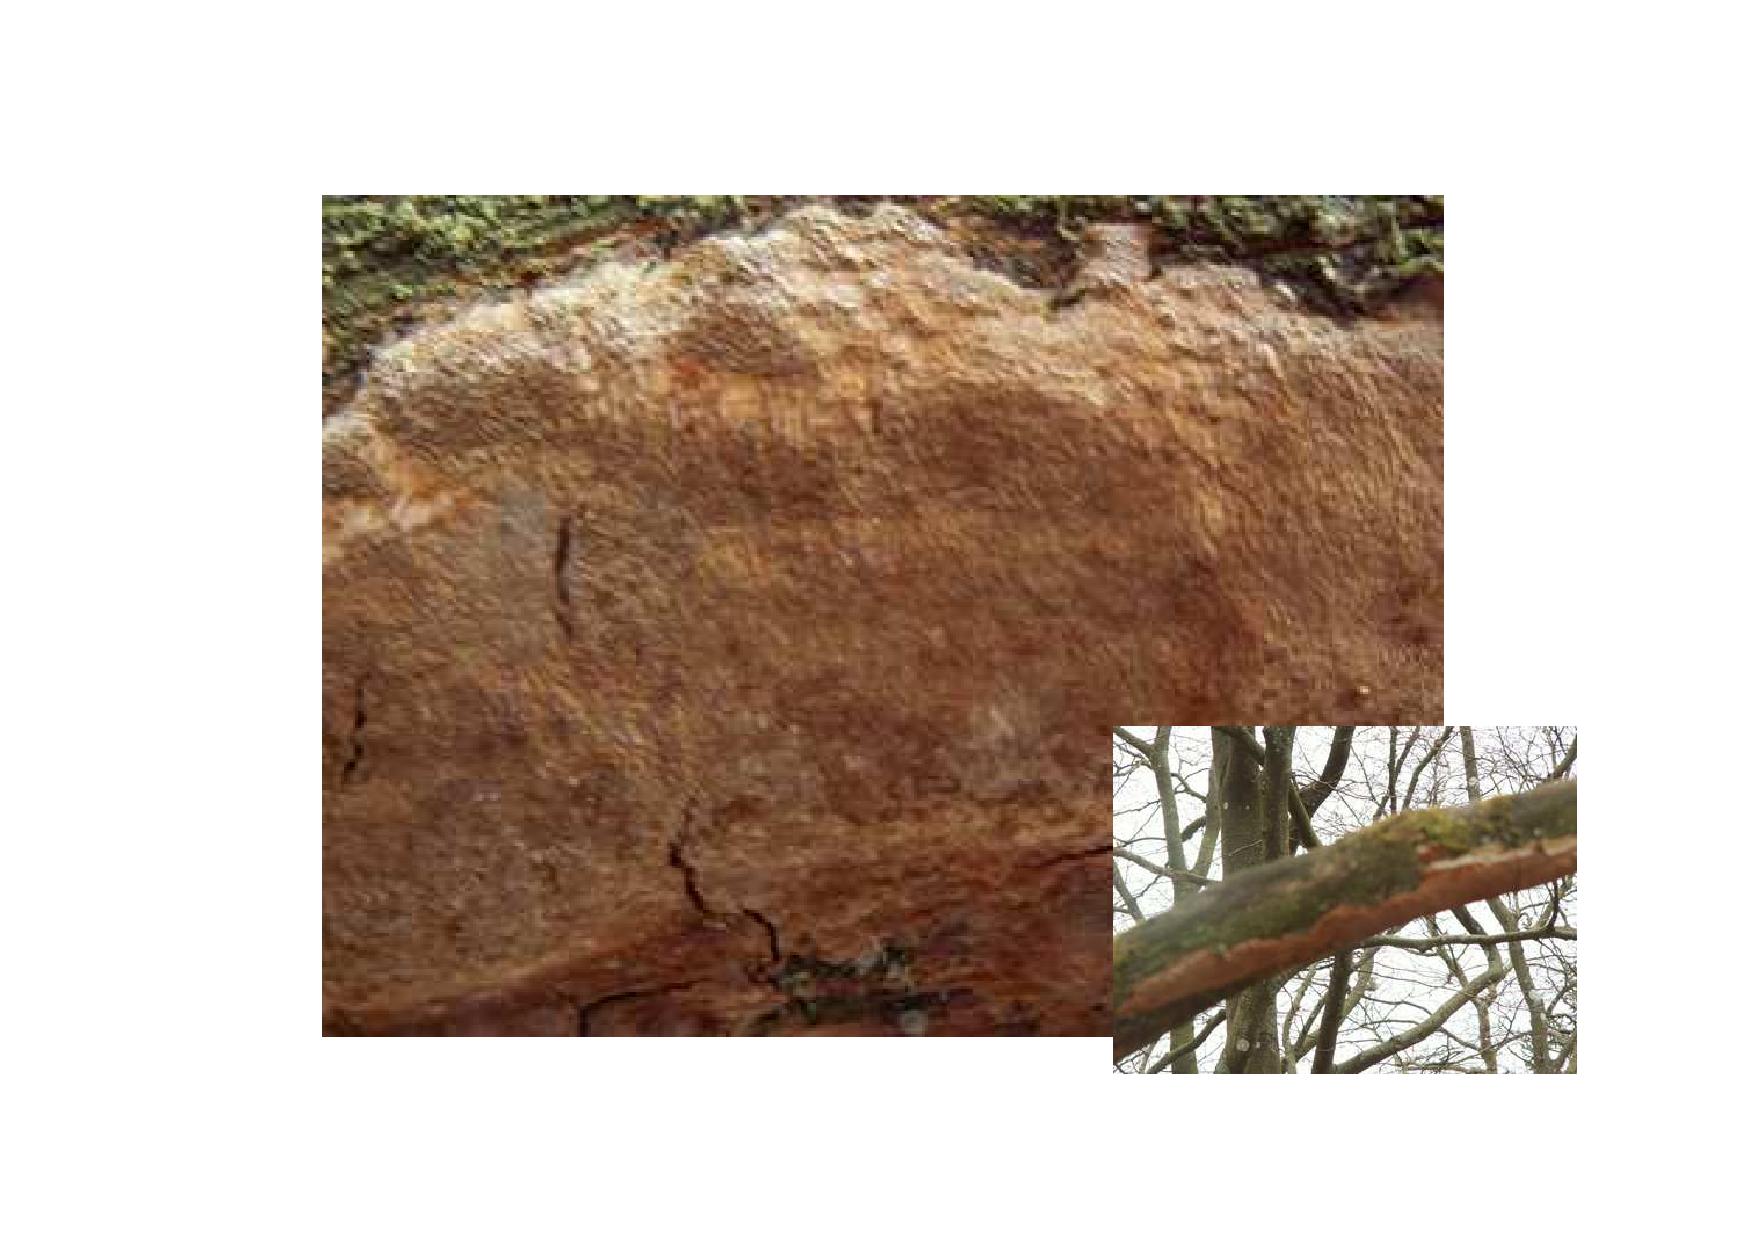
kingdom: Fungi
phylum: Basidiomycota
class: Agaricomycetes
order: Hymenochaetales
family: Hymenochaetaceae
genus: Fuscoporia
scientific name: Fuscoporia ferrea
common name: skorpe-ildporesvamp
